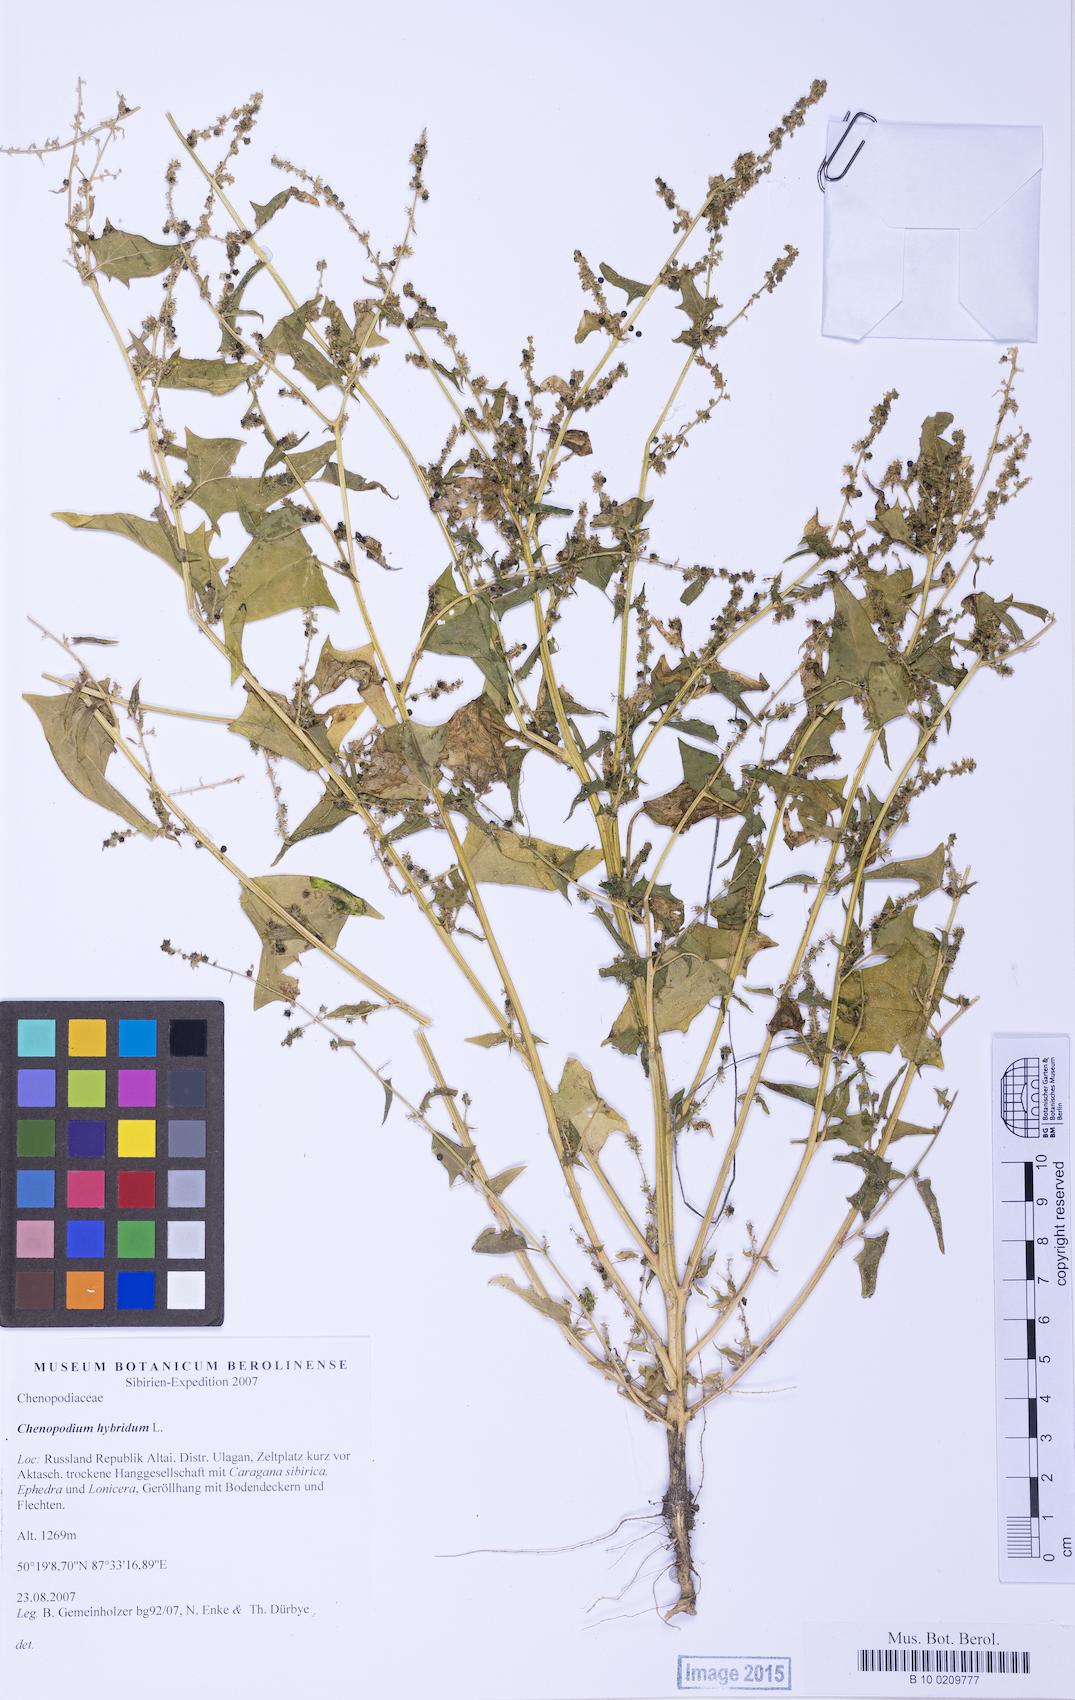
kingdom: Plantae
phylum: Tracheophyta
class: Magnoliopsida
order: Caryophyllales
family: Amaranthaceae
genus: Chenopodiastrum
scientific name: Chenopodiastrum hybridum
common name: Mapleleaf goosefoot
